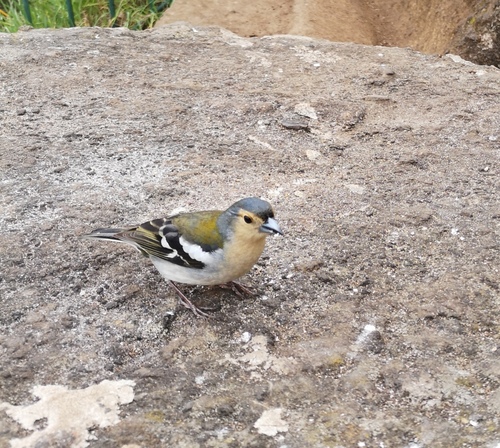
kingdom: Animalia
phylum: Chordata
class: Aves
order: Passeriformes
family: Fringillidae
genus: Fringilla
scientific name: Fringilla coelebs
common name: Common chaffinch
